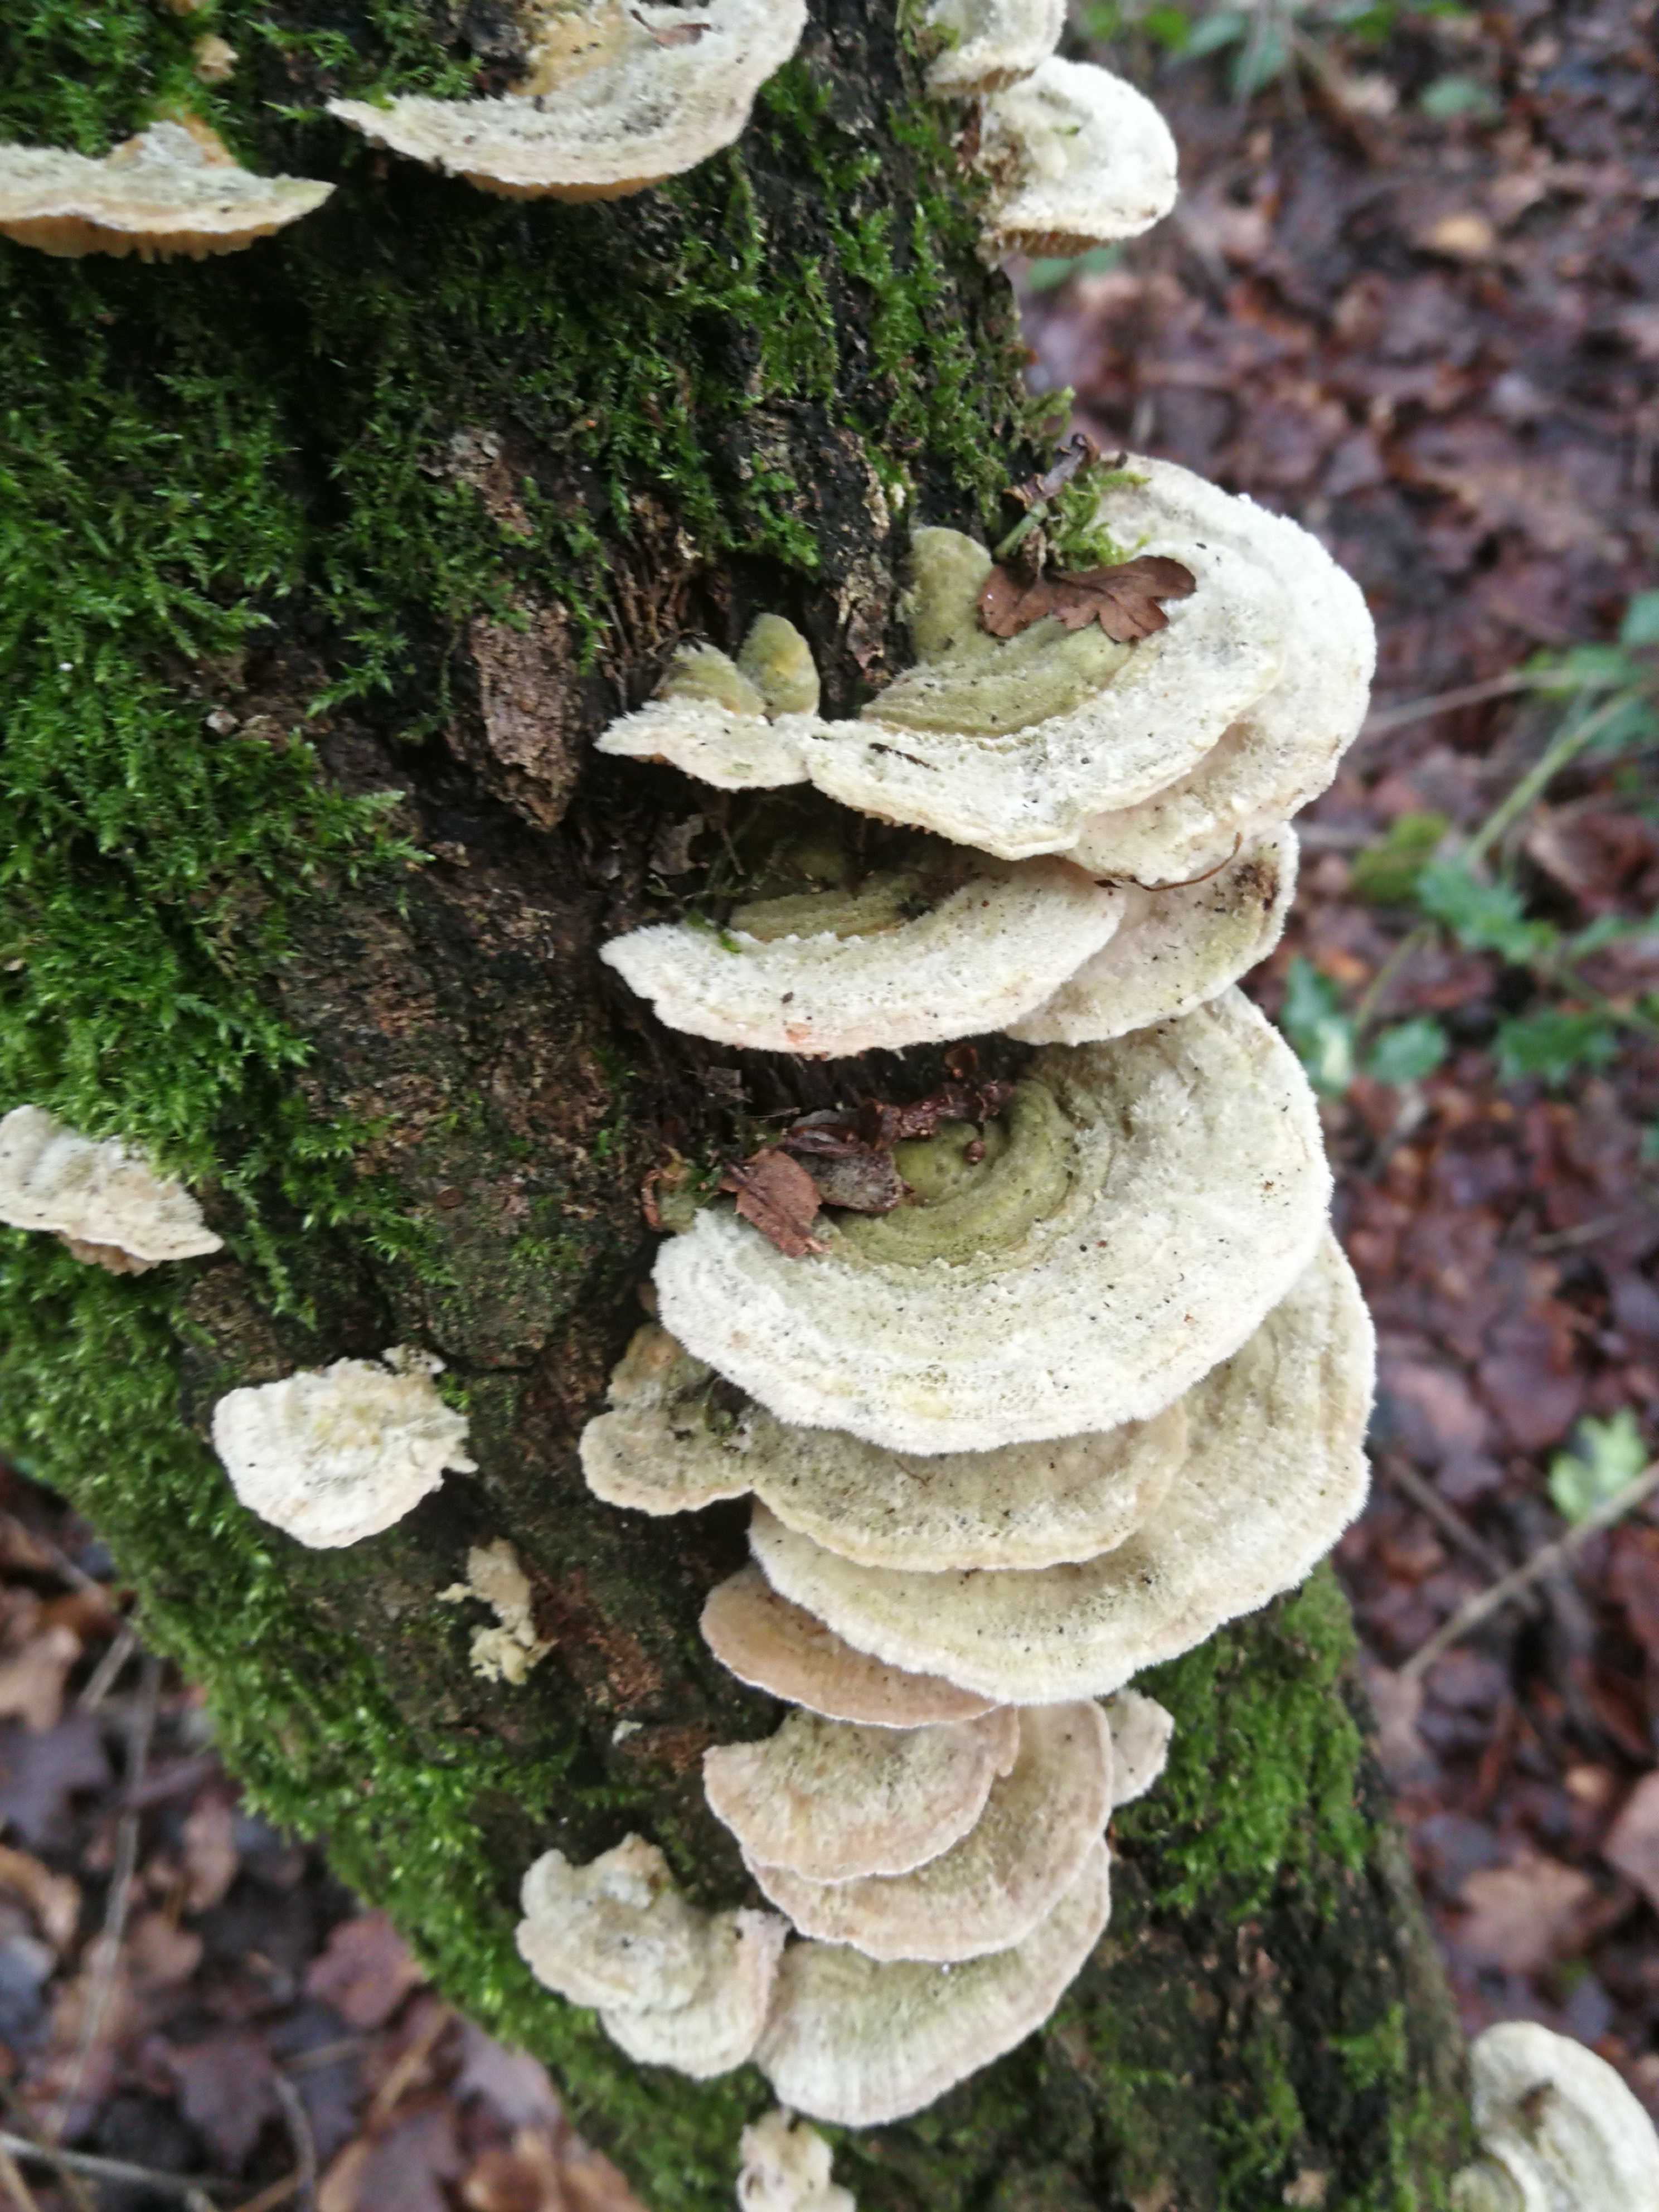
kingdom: Fungi
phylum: Basidiomycota
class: Agaricomycetes
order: Polyporales
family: Polyporaceae
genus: Lenzites
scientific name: Lenzites betulinus
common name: birke-læderporesvamp
